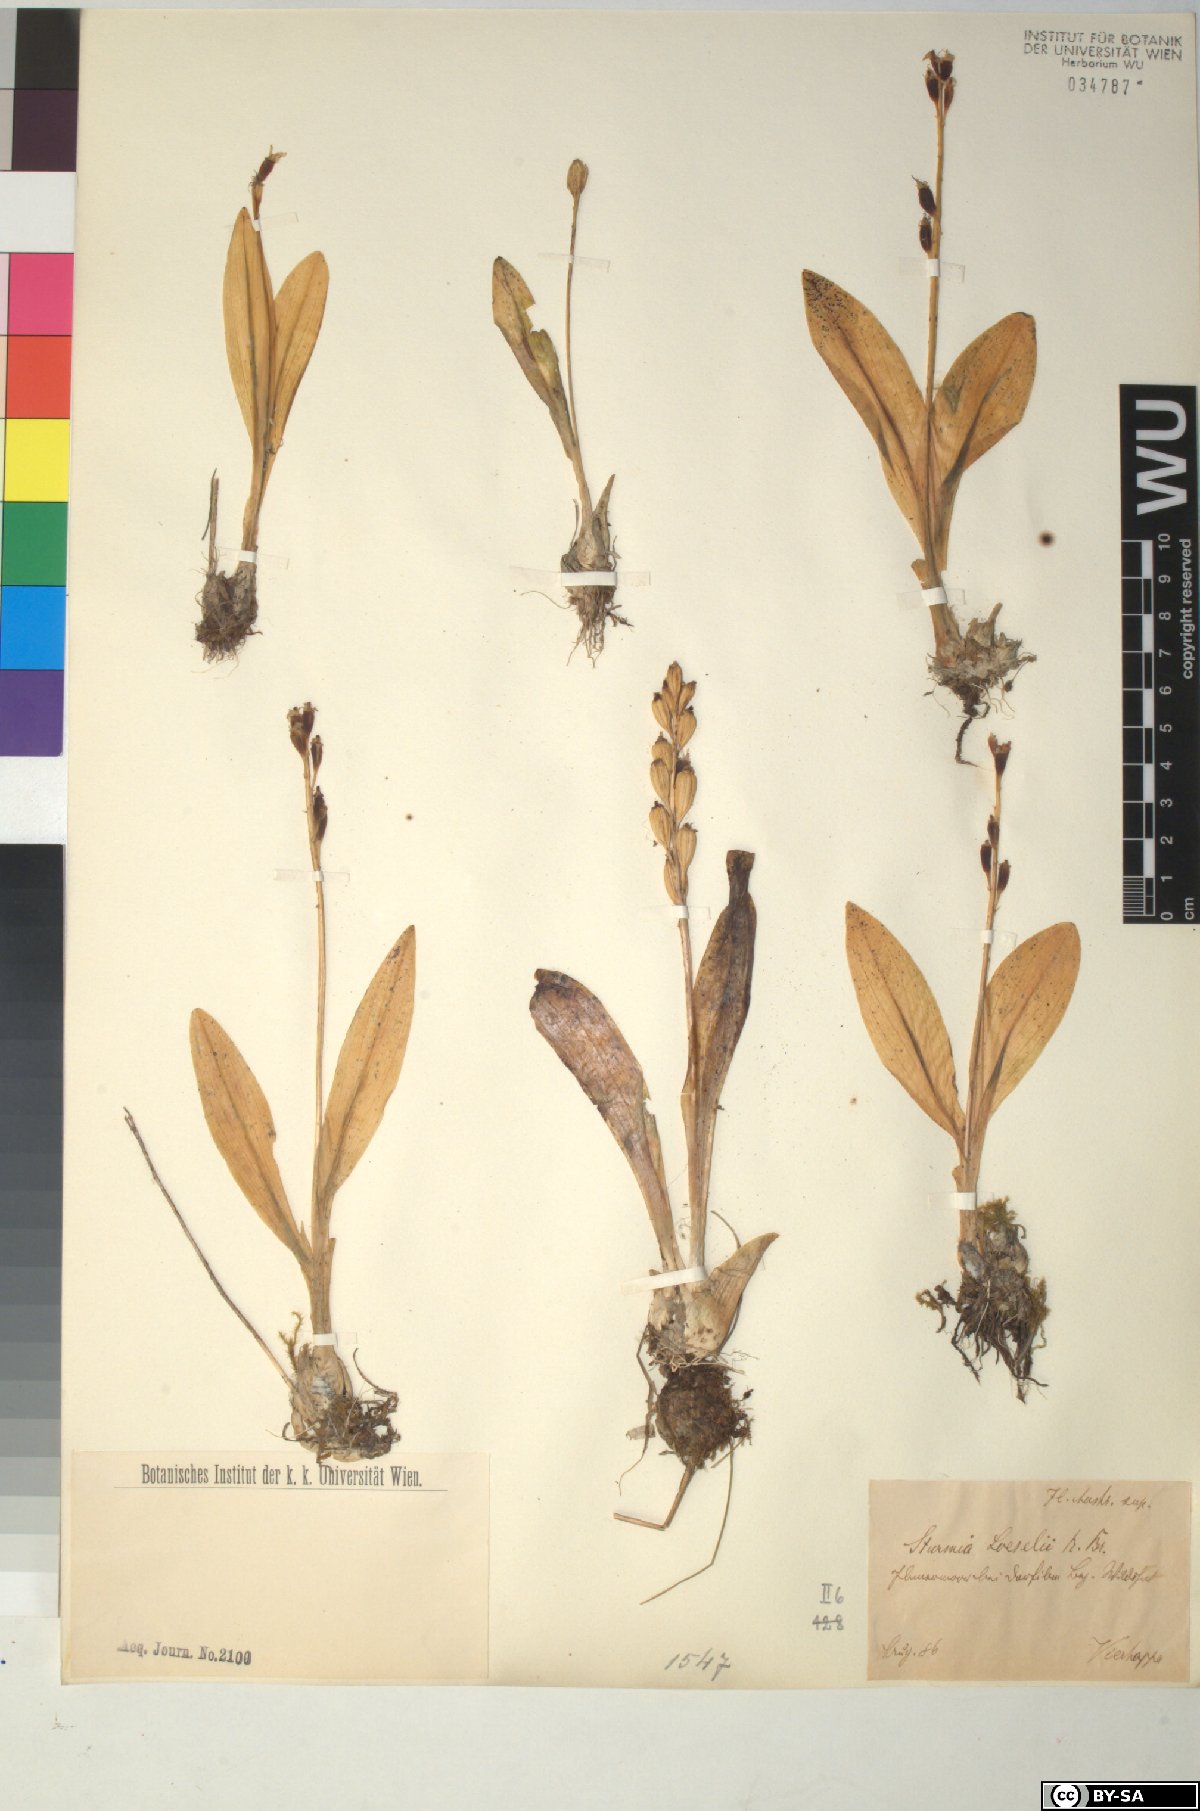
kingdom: Animalia
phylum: Arthropoda
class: Insecta
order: Coleoptera
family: Curculionidae
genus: Liparis
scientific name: Liparis loeselii
